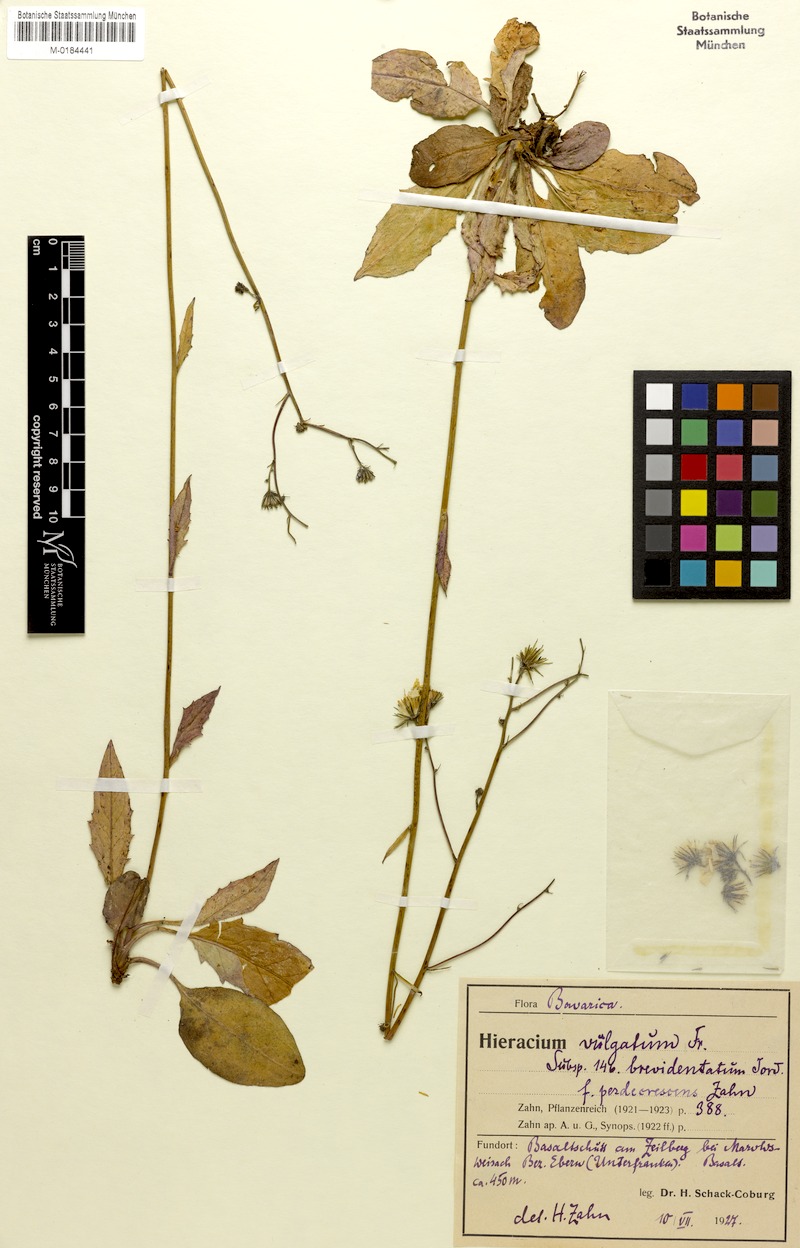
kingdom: Plantae
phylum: Tracheophyta
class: Magnoliopsida
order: Asterales
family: Asteraceae
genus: Hieracium
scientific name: Hieracium lachenalii
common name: Common hawkweed
